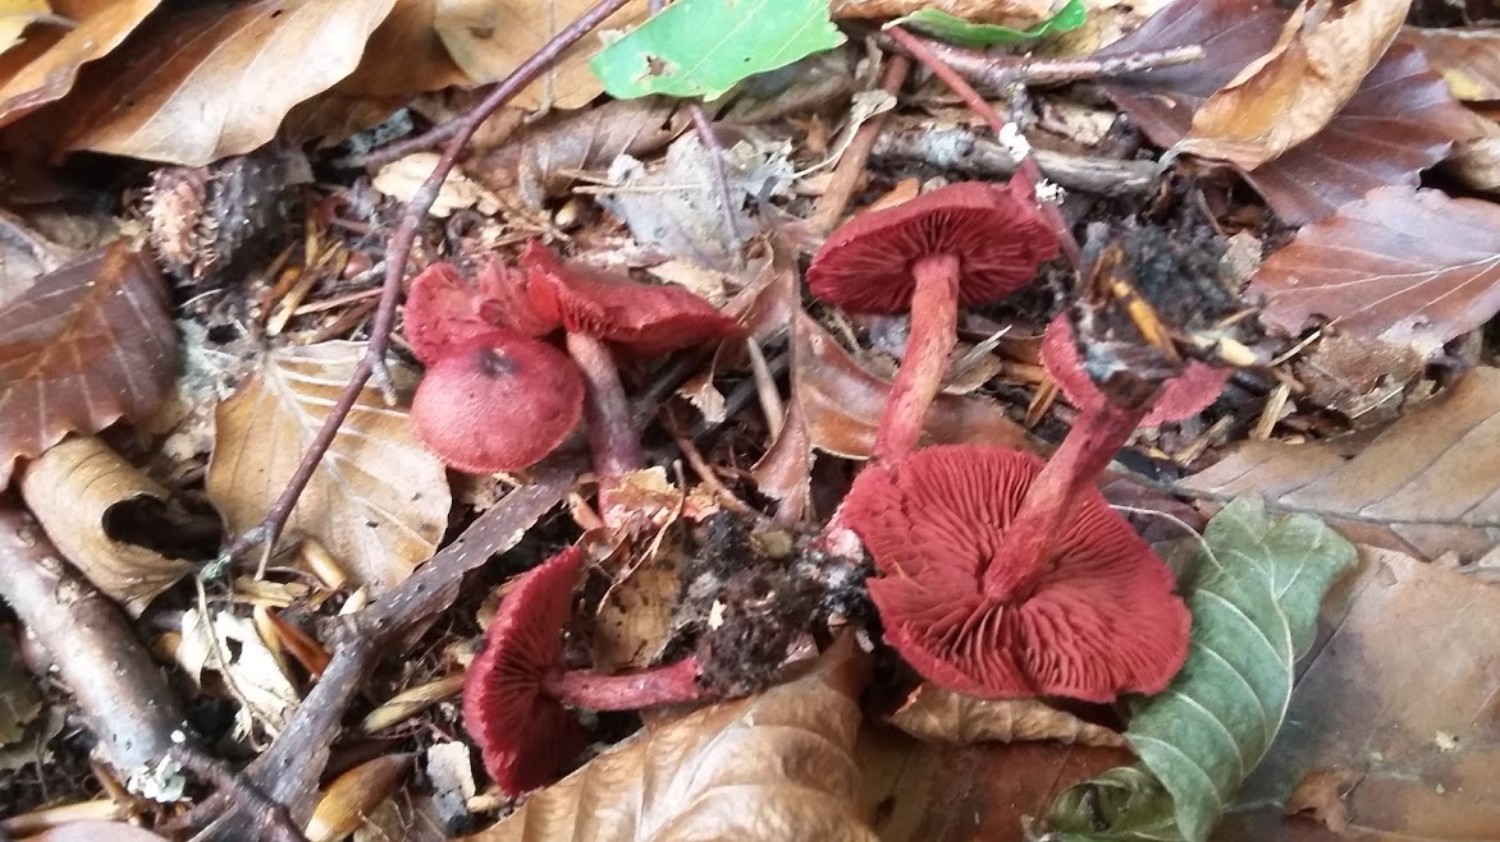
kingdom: Fungi
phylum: Basidiomycota
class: Agaricomycetes
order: Agaricales
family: Cortinariaceae
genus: Cortinarius
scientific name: Cortinarius sanguineus
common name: Bloodred webcap
